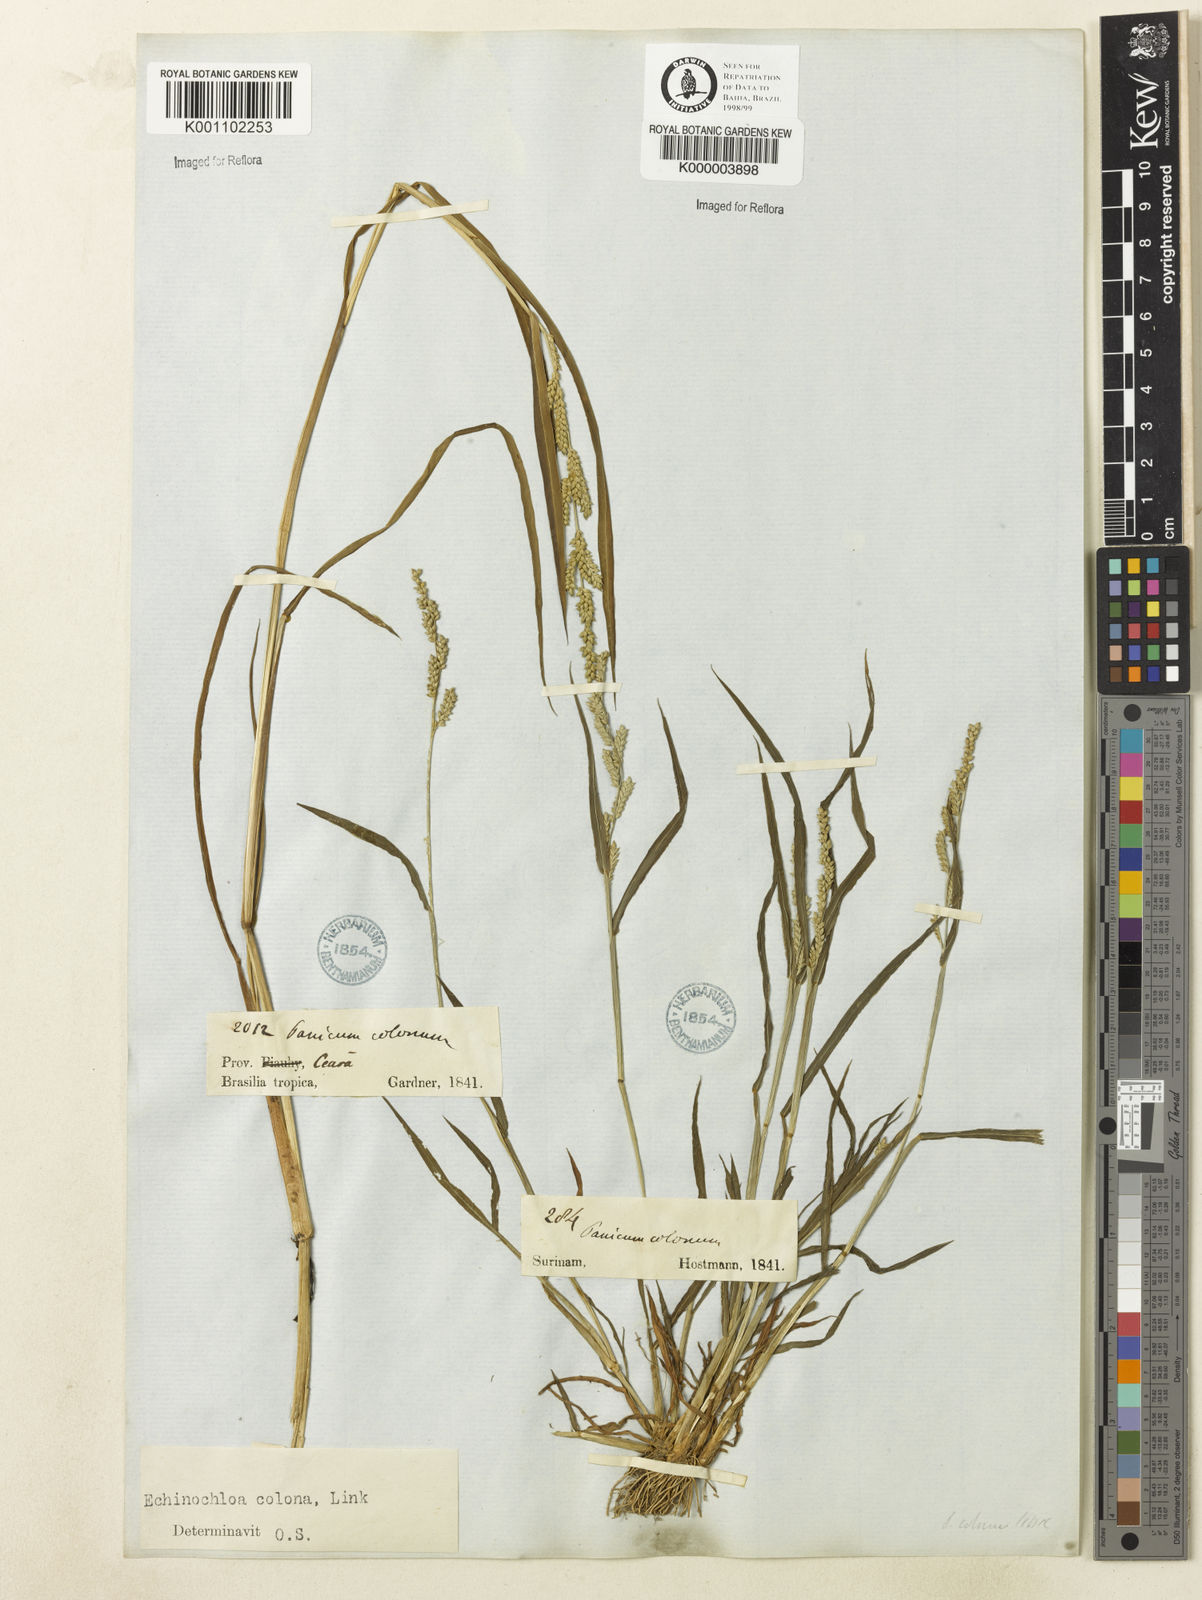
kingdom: Plantae
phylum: Tracheophyta
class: Liliopsida
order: Poales
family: Poaceae
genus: Echinochloa
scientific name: Echinochloa colonum
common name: Jungle rice
